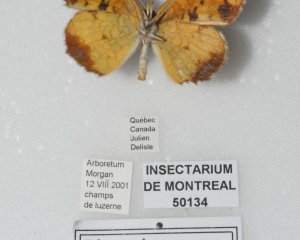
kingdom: Animalia
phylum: Arthropoda
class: Insecta
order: Lepidoptera
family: Nymphalidae
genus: Phyciodes
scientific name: Phyciodes tharos
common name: Pearl Crescent
